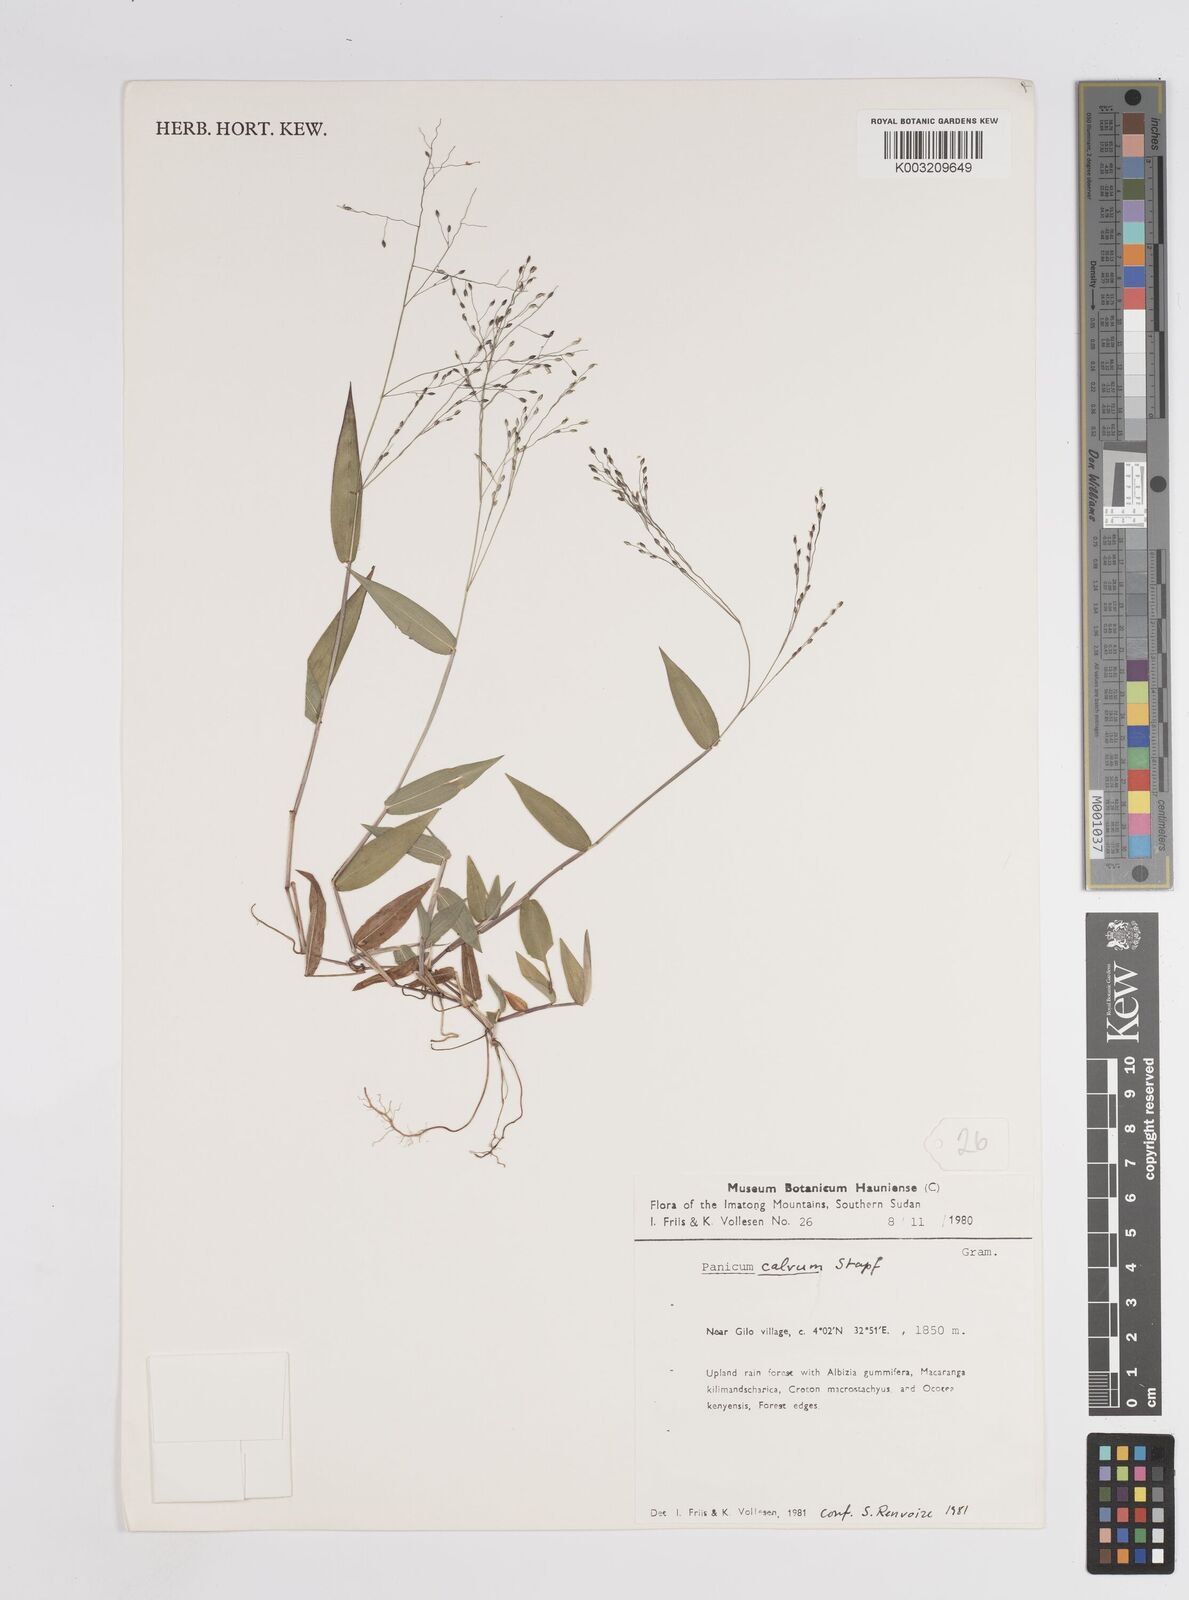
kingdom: Plantae
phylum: Tracheophyta
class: Liliopsida
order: Poales
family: Poaceae
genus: Panicum
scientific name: Panicum calvum
